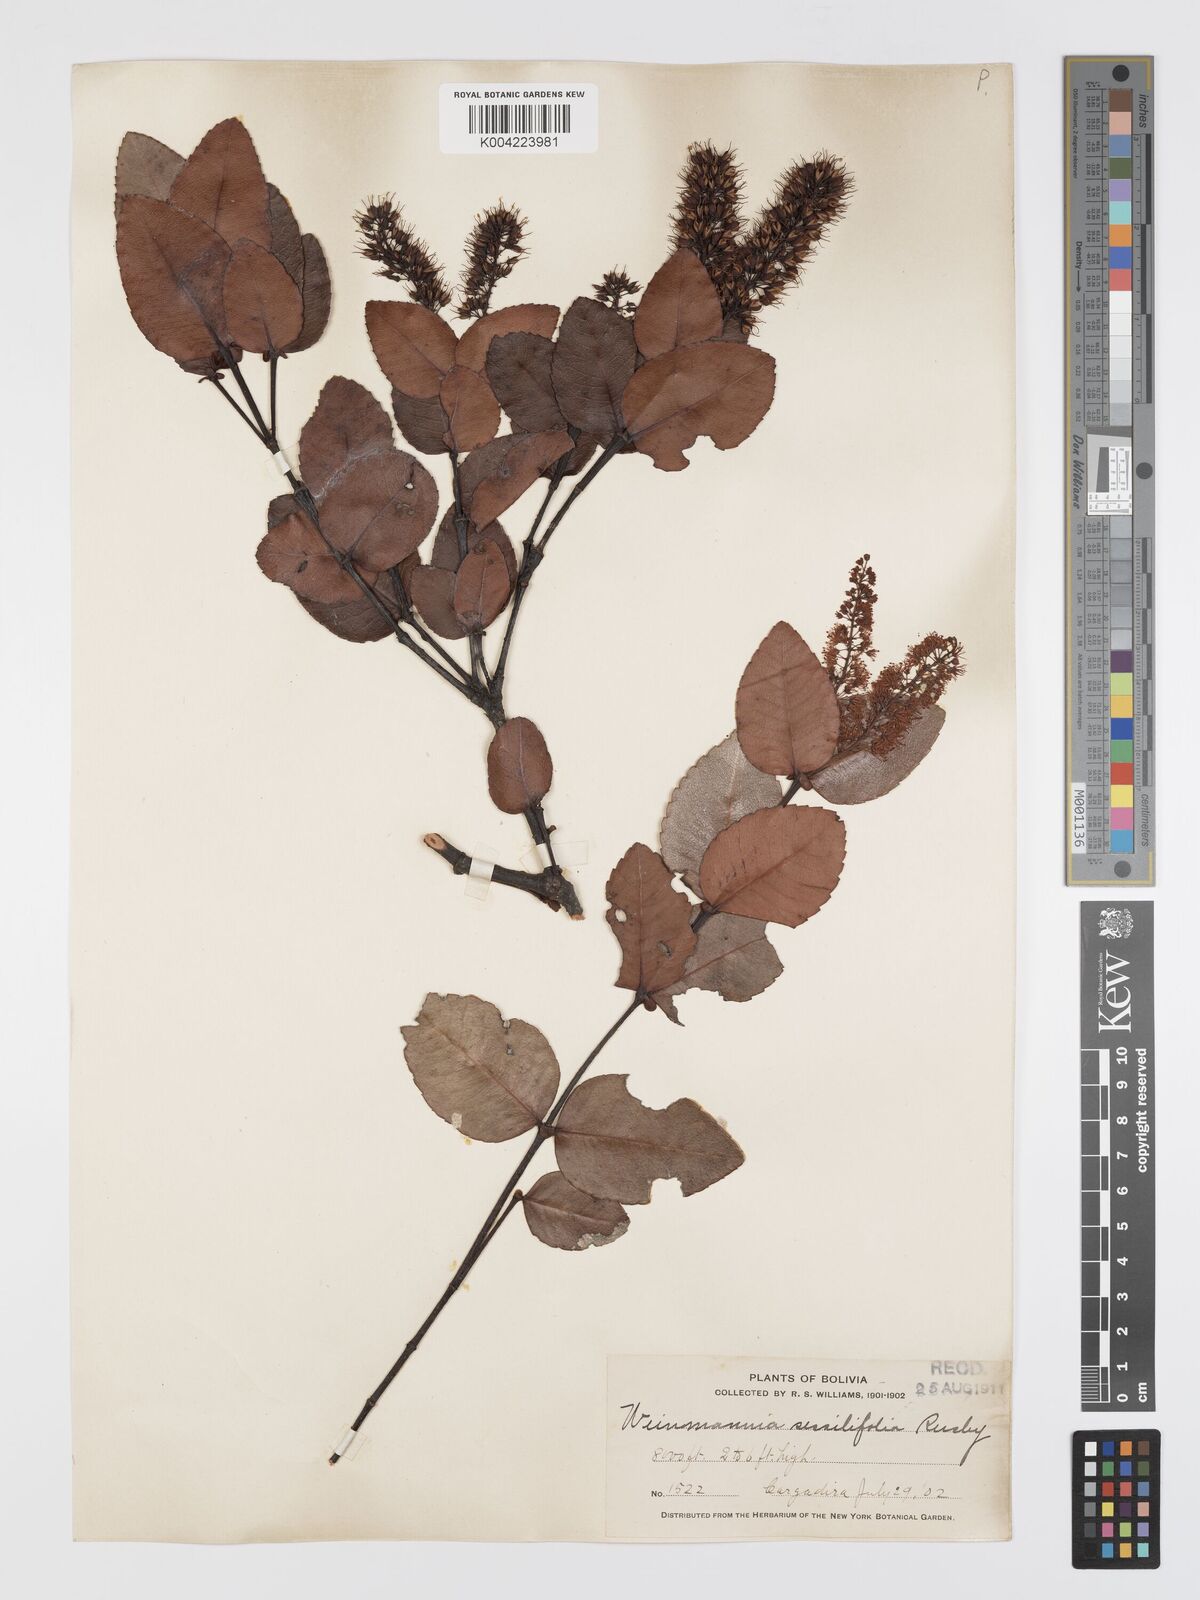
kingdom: Plantae
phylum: Tracheophyta
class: Magnoliopsida
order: Oxalidales
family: Cunoniaceae
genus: Weinmannia
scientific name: Weinmannia crassifolia
